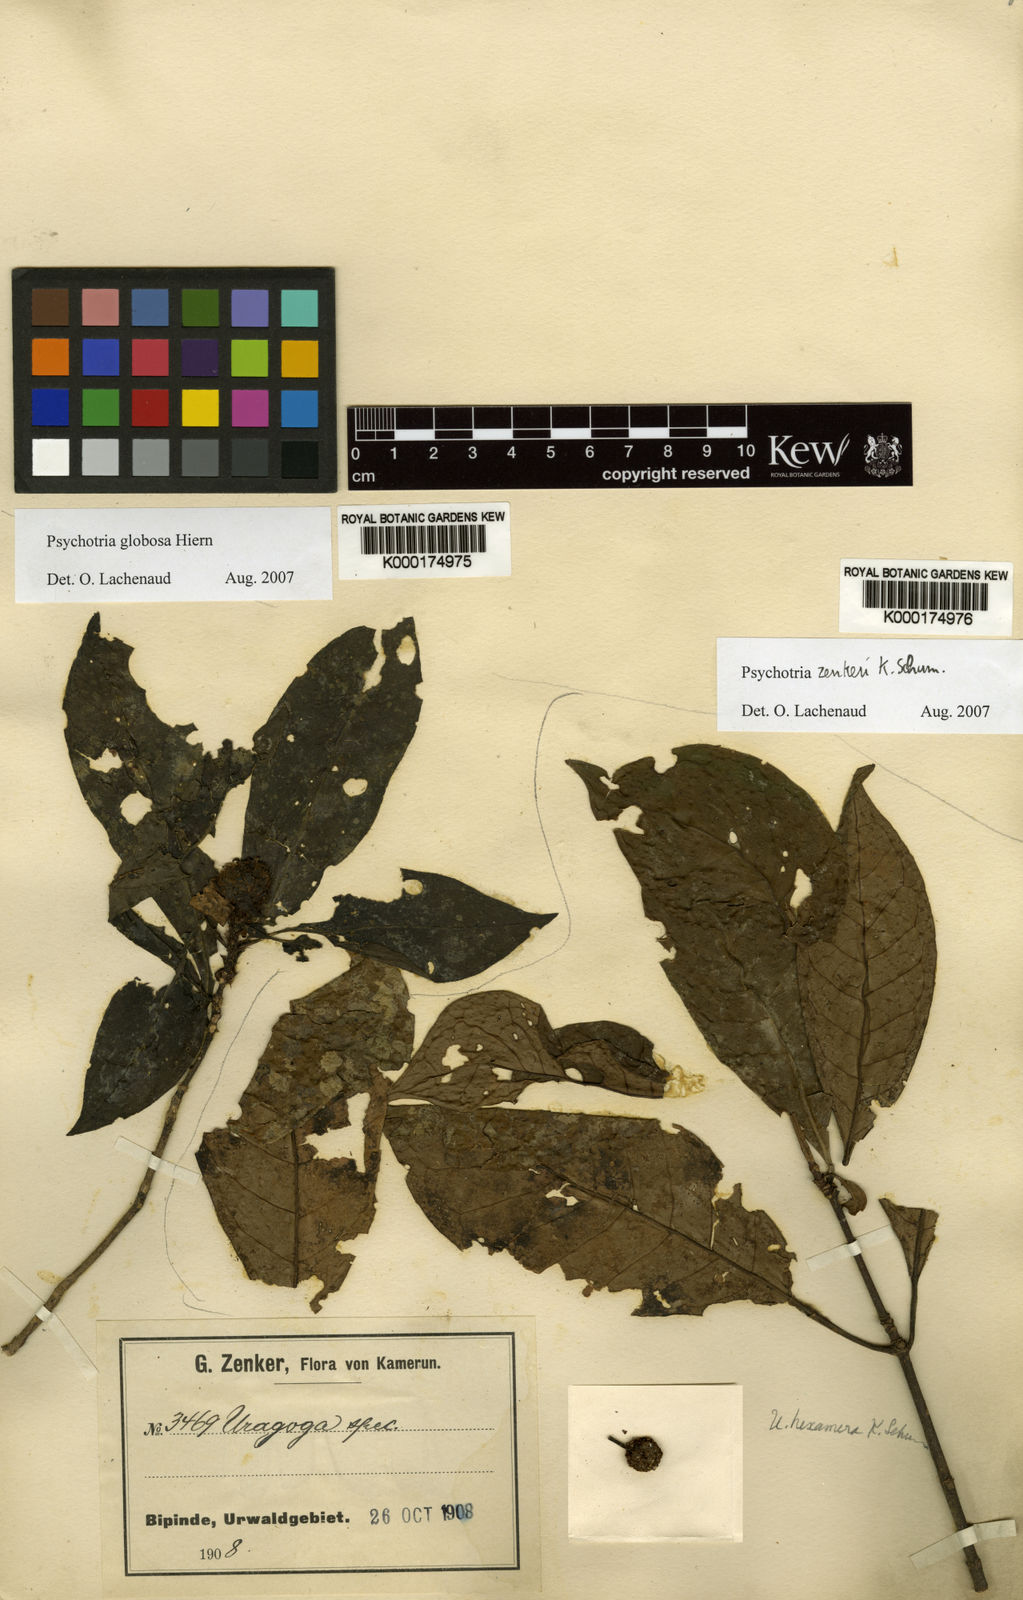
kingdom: Plantae
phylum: Tracheophyta
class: Magnoliopsida
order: Gentianales
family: Rubiaceae
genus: Psychotria
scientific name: Psychotria
